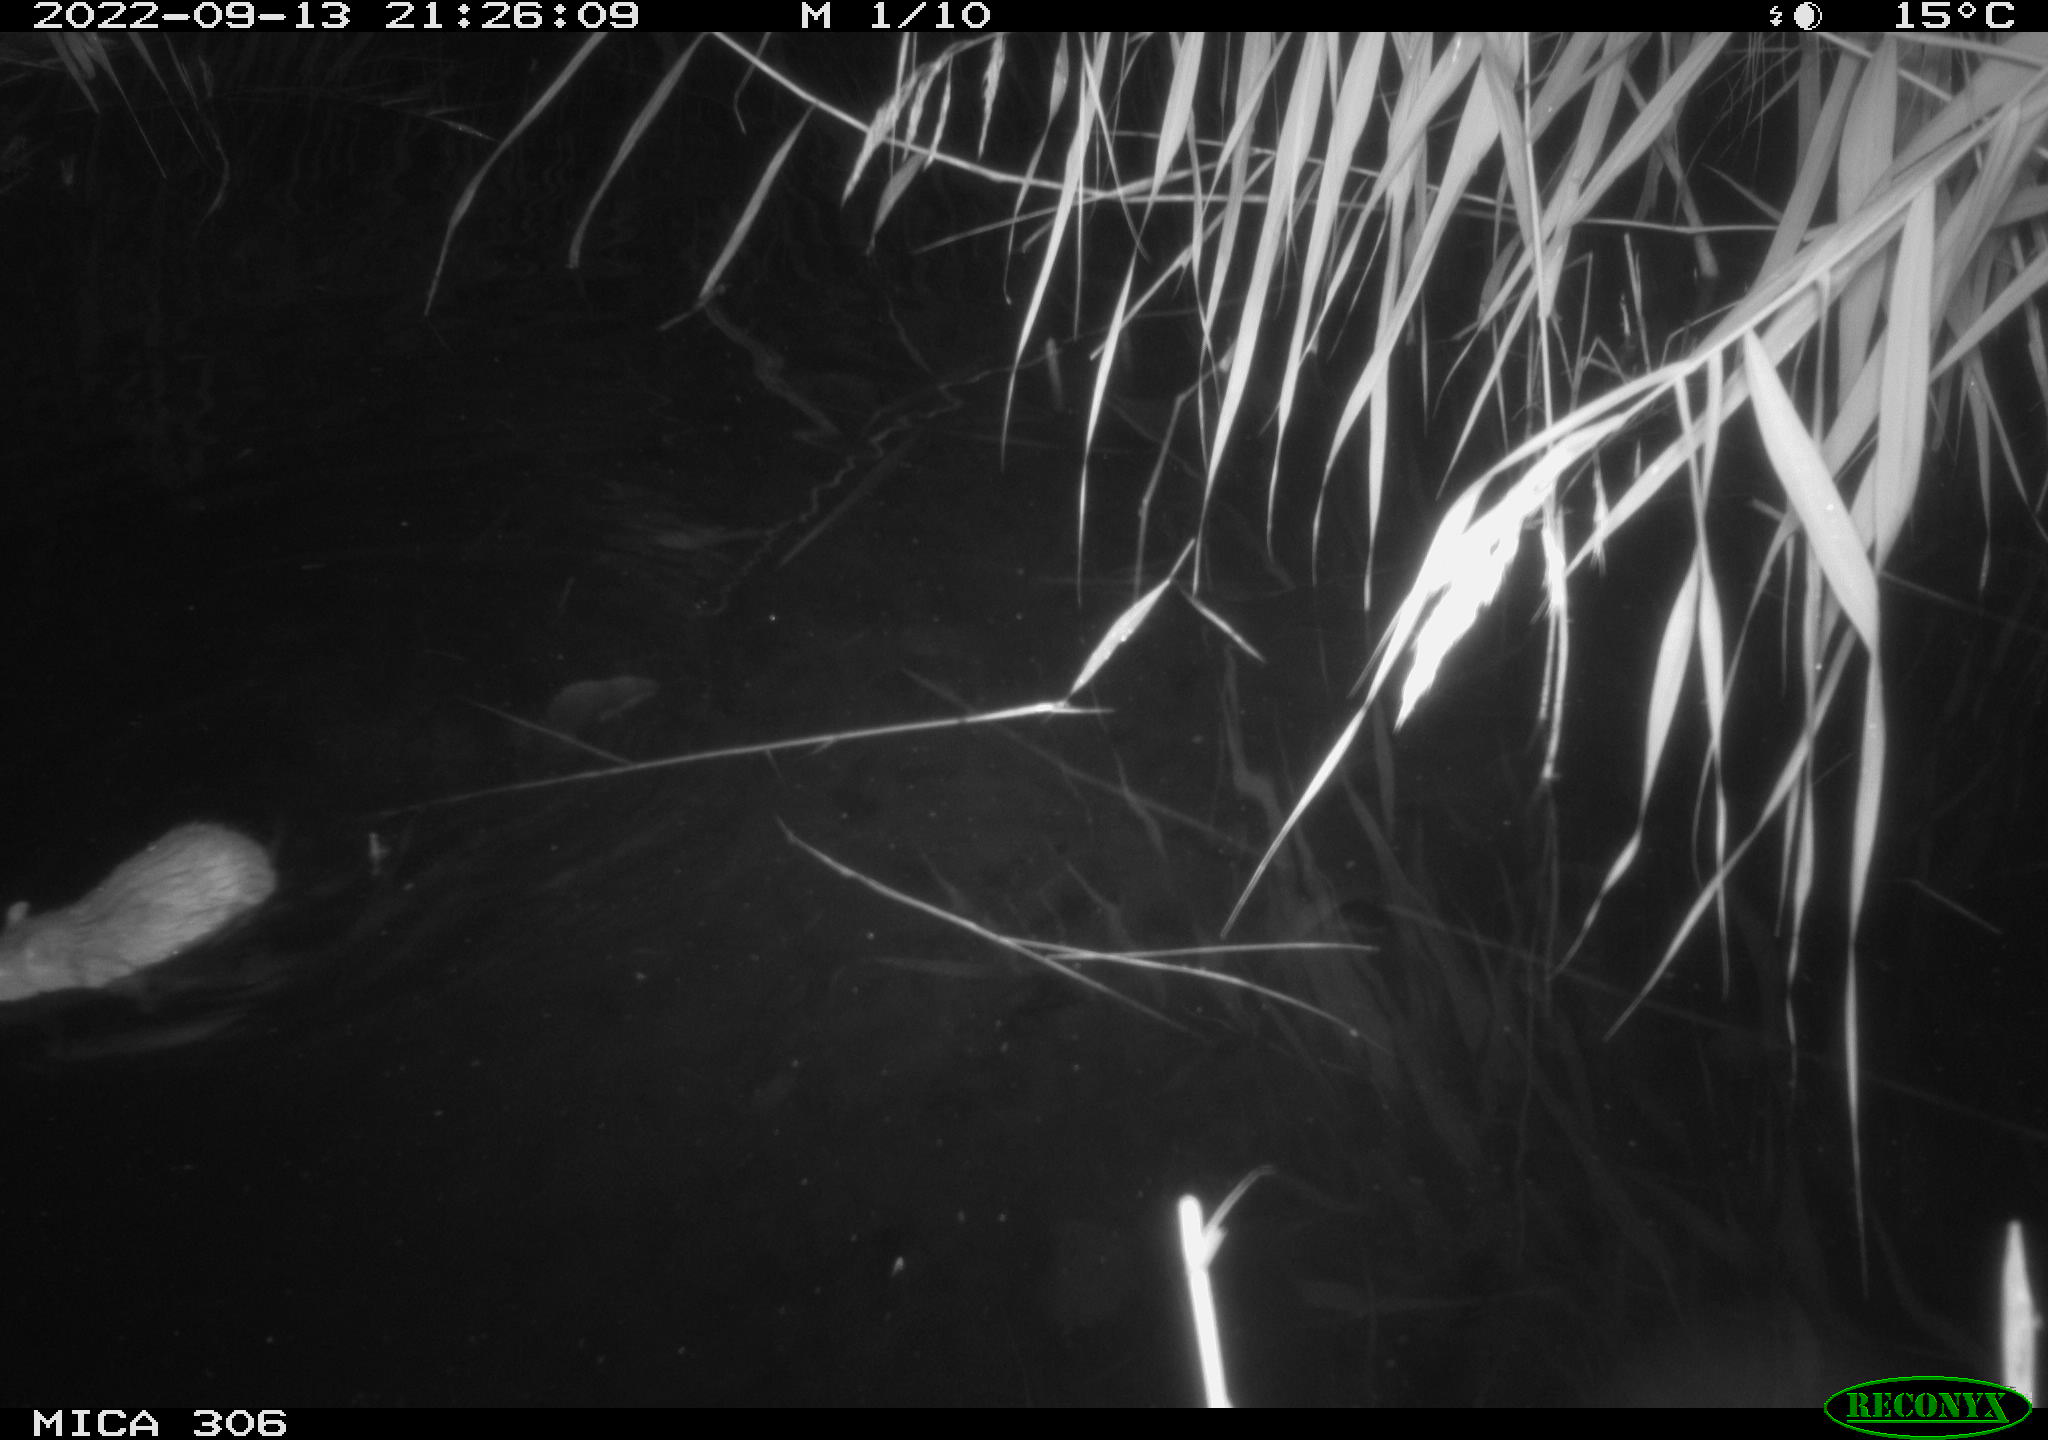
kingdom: Animalia
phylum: Chordata
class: Mammalia
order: Rodentia
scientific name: Rodentia
